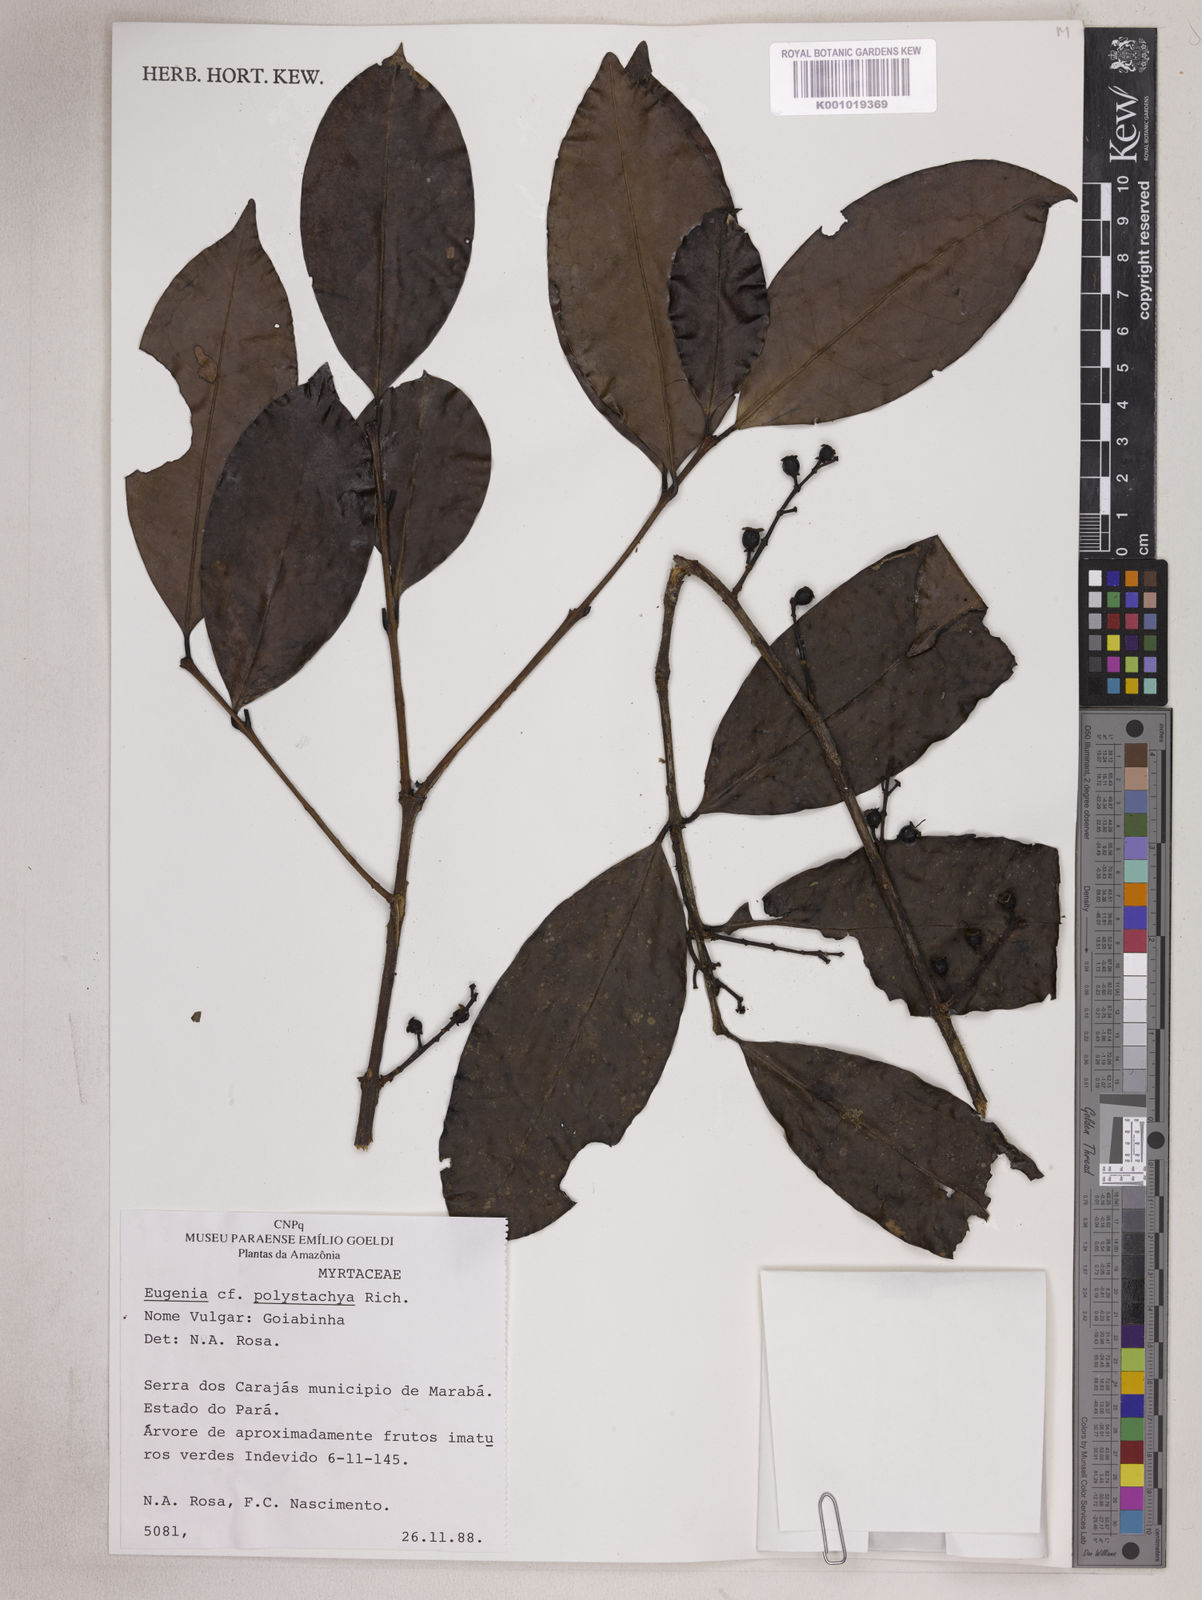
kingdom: Plantae
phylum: Tracheophyta
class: Magnoliopsida
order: Myrtales
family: Myrtaceae
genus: Eugenia
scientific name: Eugenia polystachya
